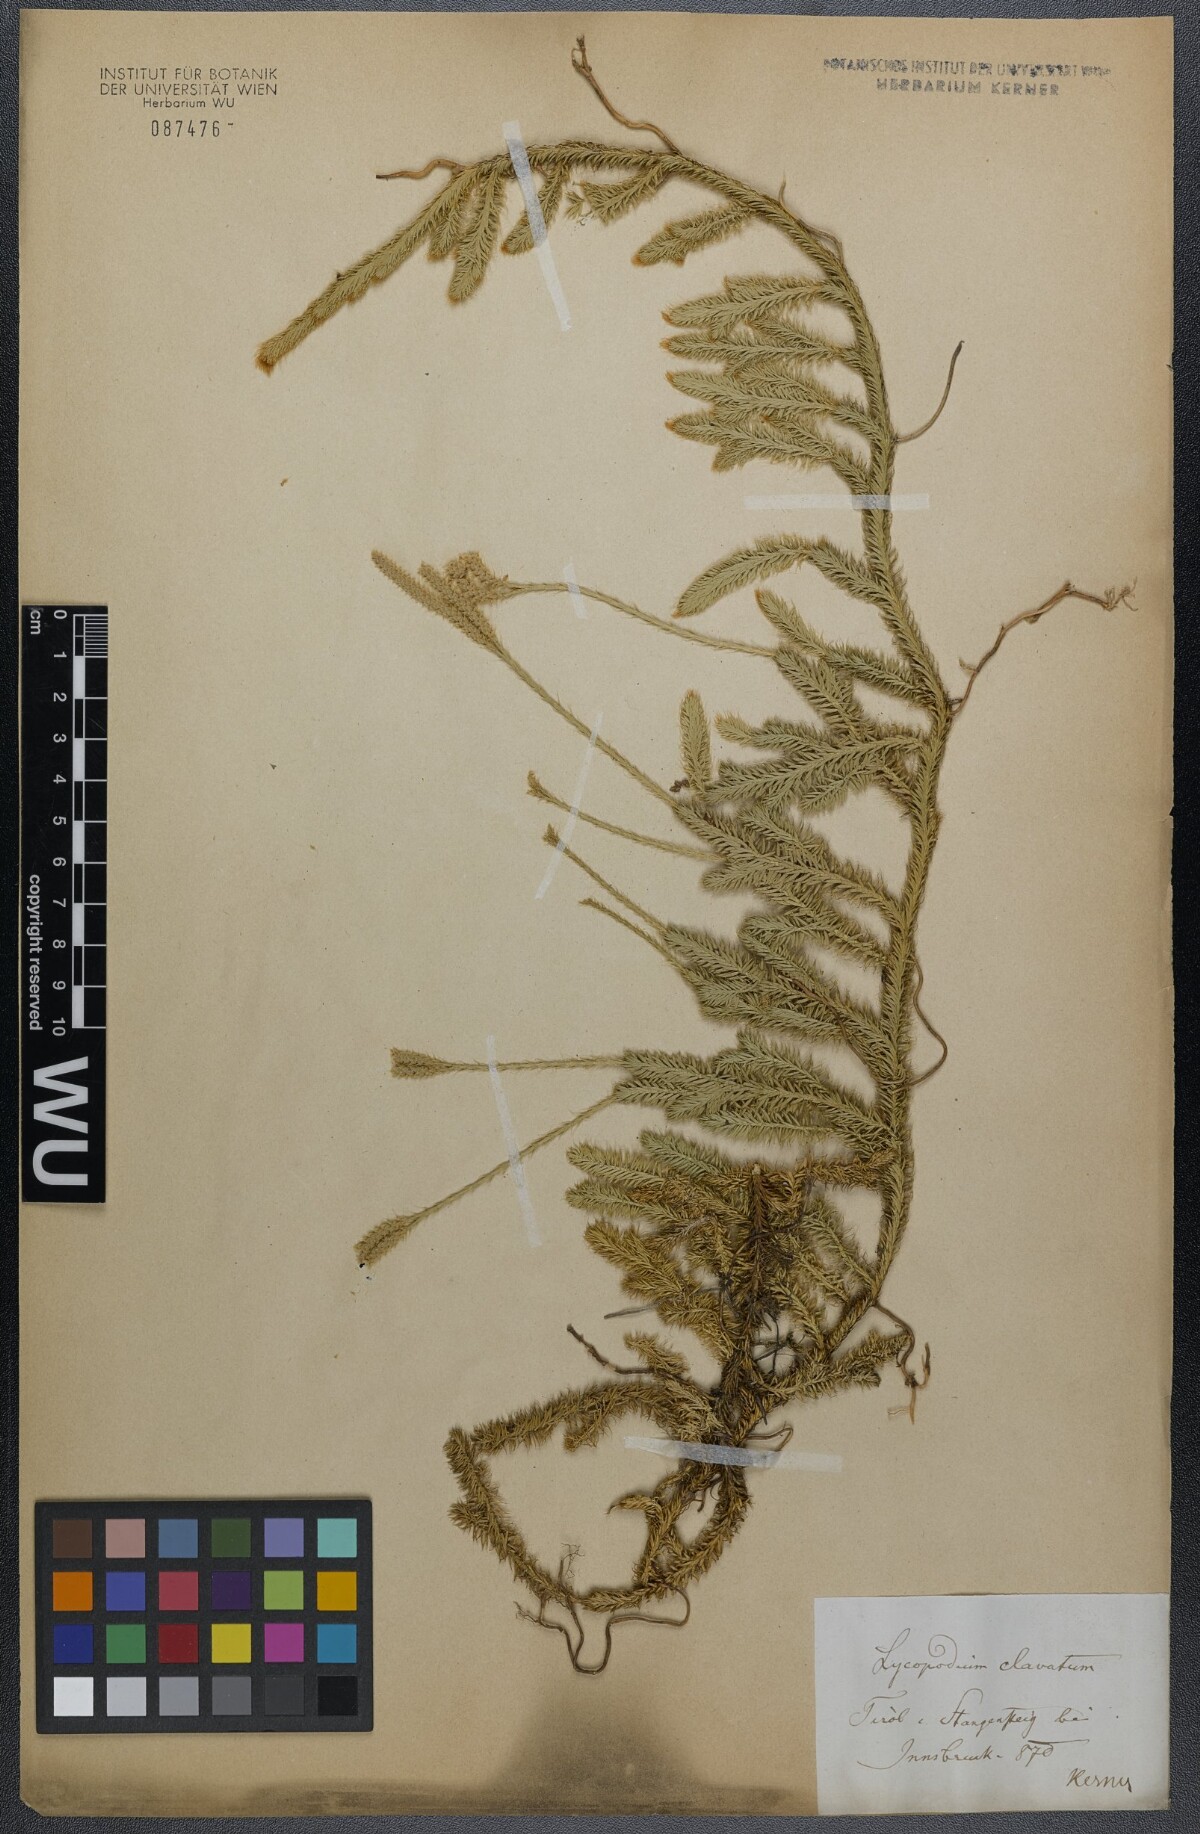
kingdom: Plantae
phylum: Tracheophyta
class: Lycopodiopsida
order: Lycopodiales
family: Lycopodiaceae
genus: Lycopodium
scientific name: Lycopodium clavatum
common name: Stag's-horn clubmoss
